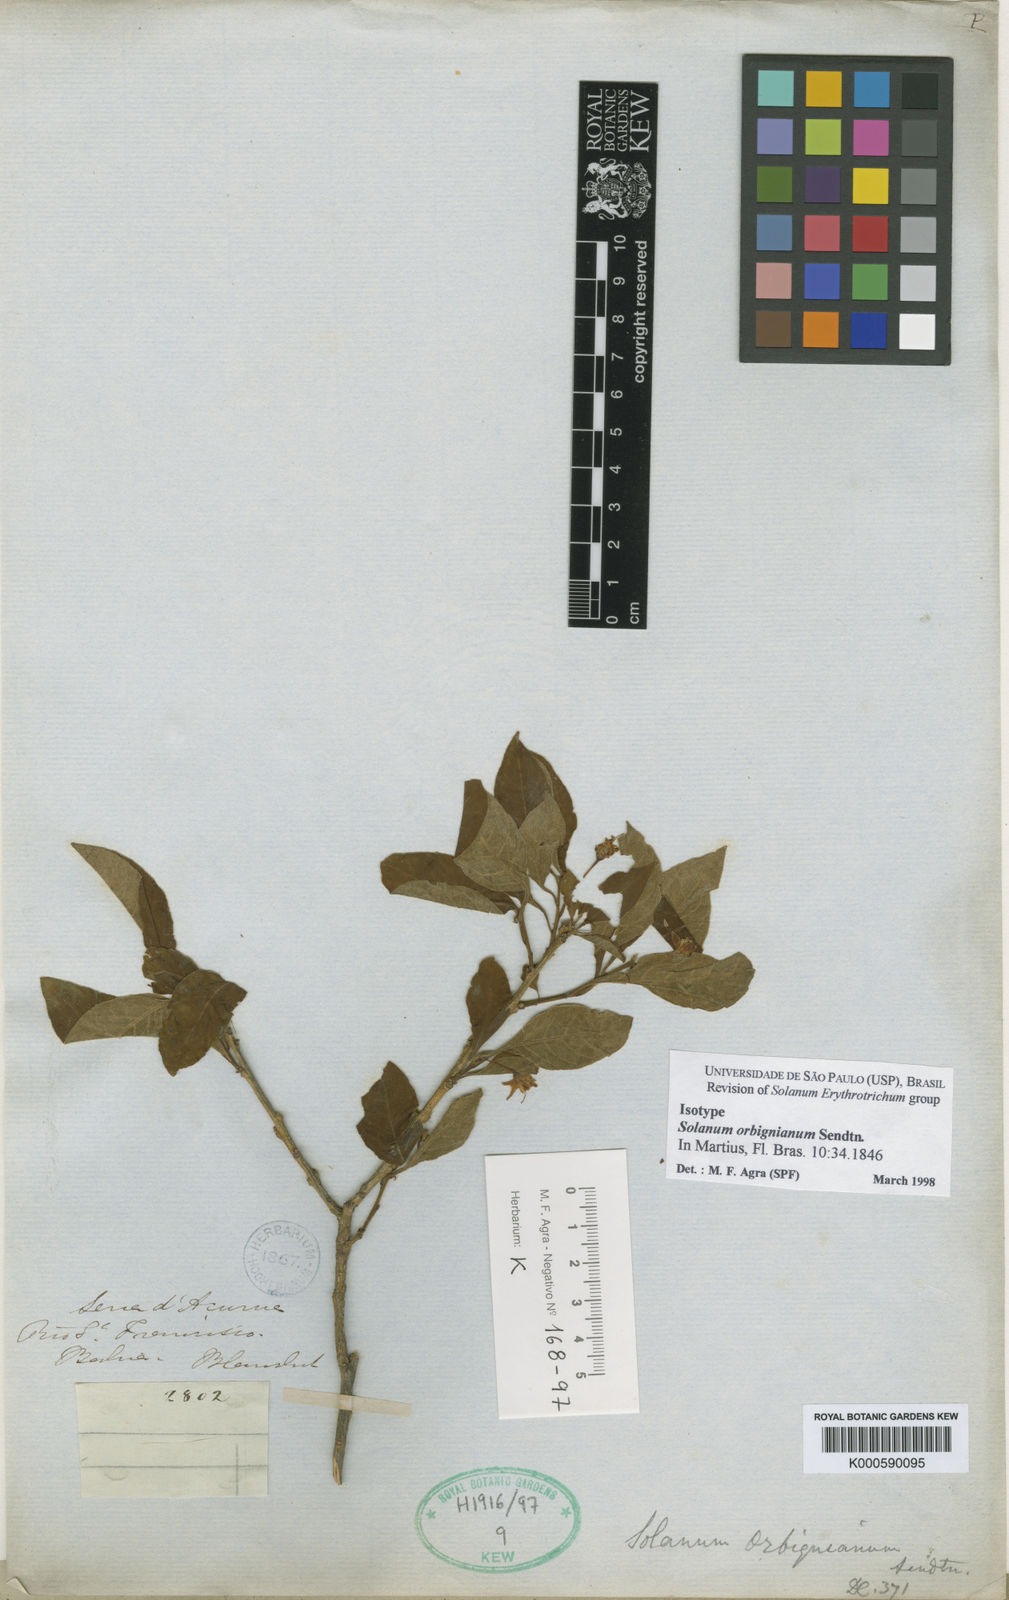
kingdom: Plantae
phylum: Tracheophyta
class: Magnoliopsida
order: Solanales
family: Solanaceae
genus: Solanum
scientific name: Solanum orbignianum
